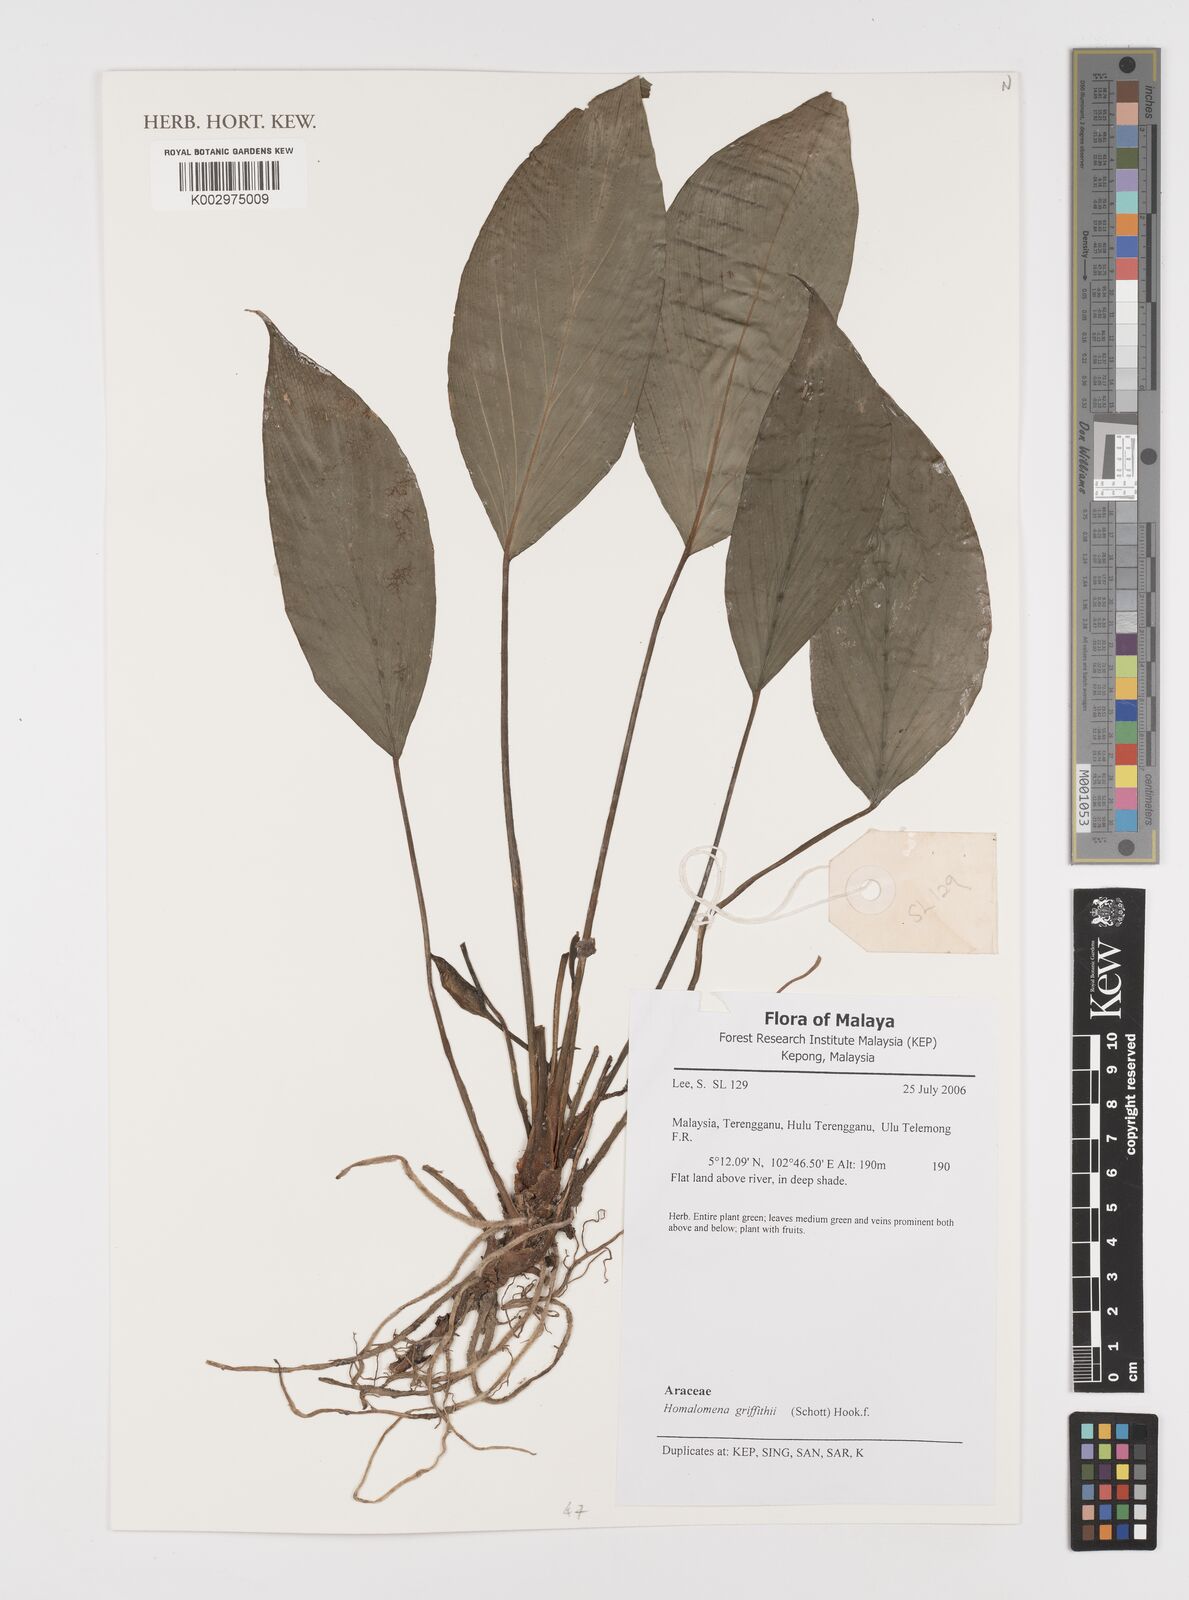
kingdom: Plantae
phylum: Tracheophyta
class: Liliopsida
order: Alismatales
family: Araceae
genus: Homalomena
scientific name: Homalomena griffithii
